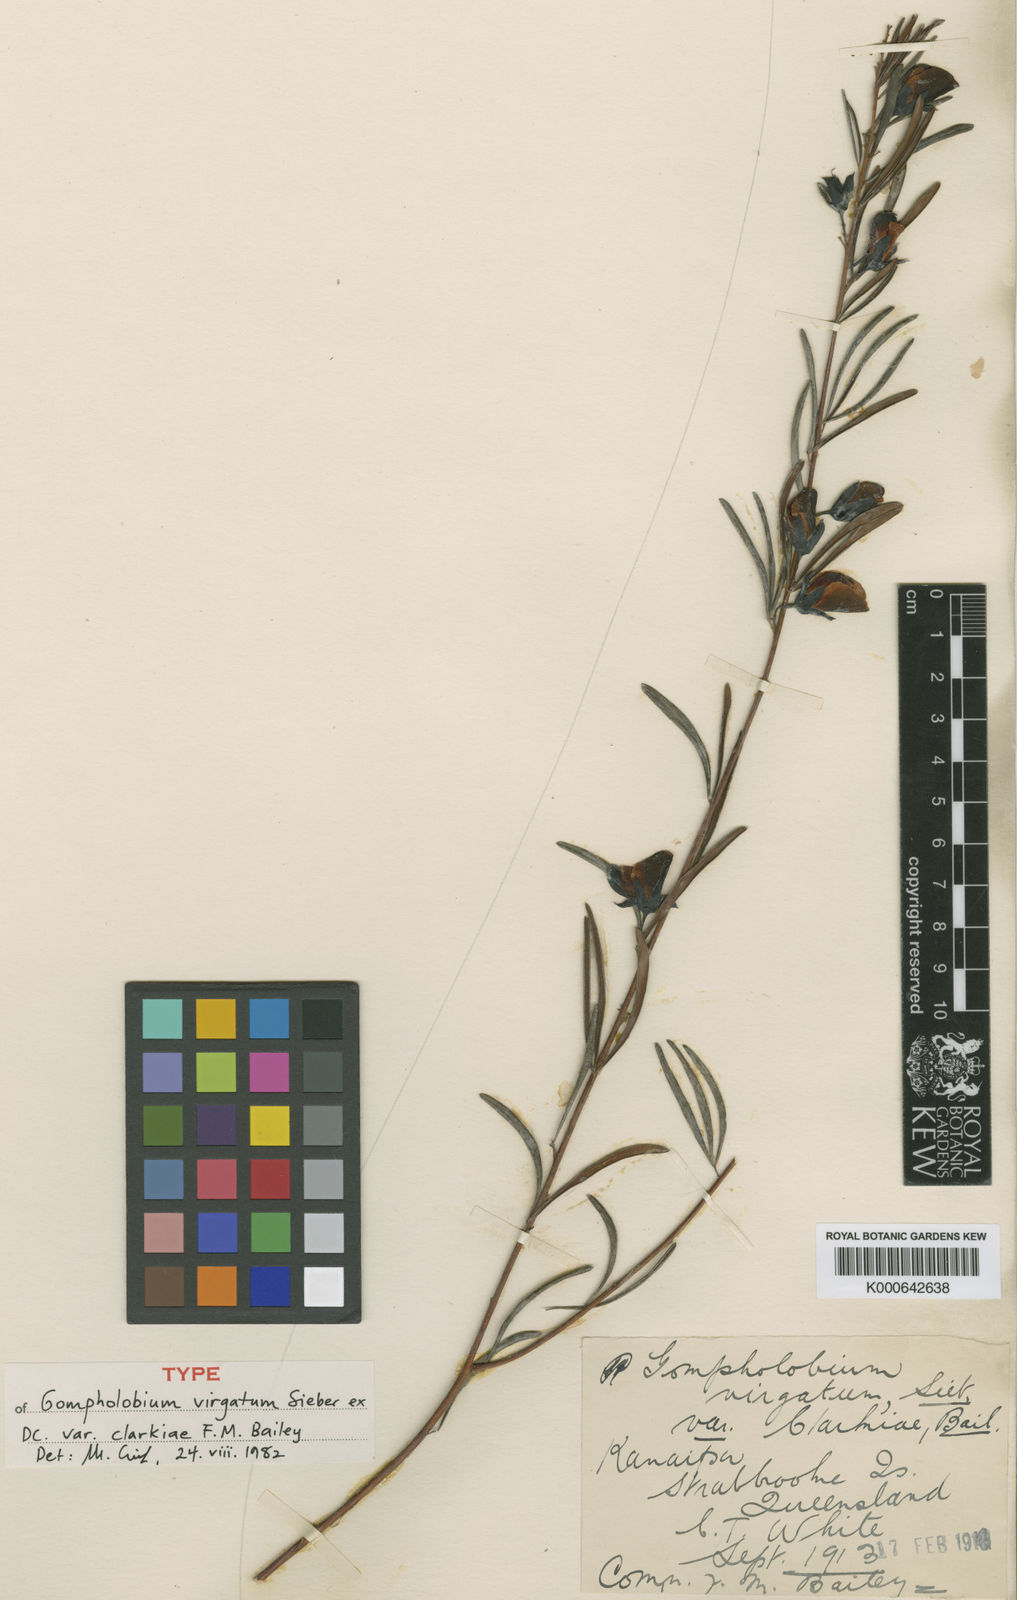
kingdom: Plantae
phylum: Tracheophyta
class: Magnoliopsida
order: Fabales
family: Fabaceae
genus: Gompholobium
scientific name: Gompholobium virgatum
